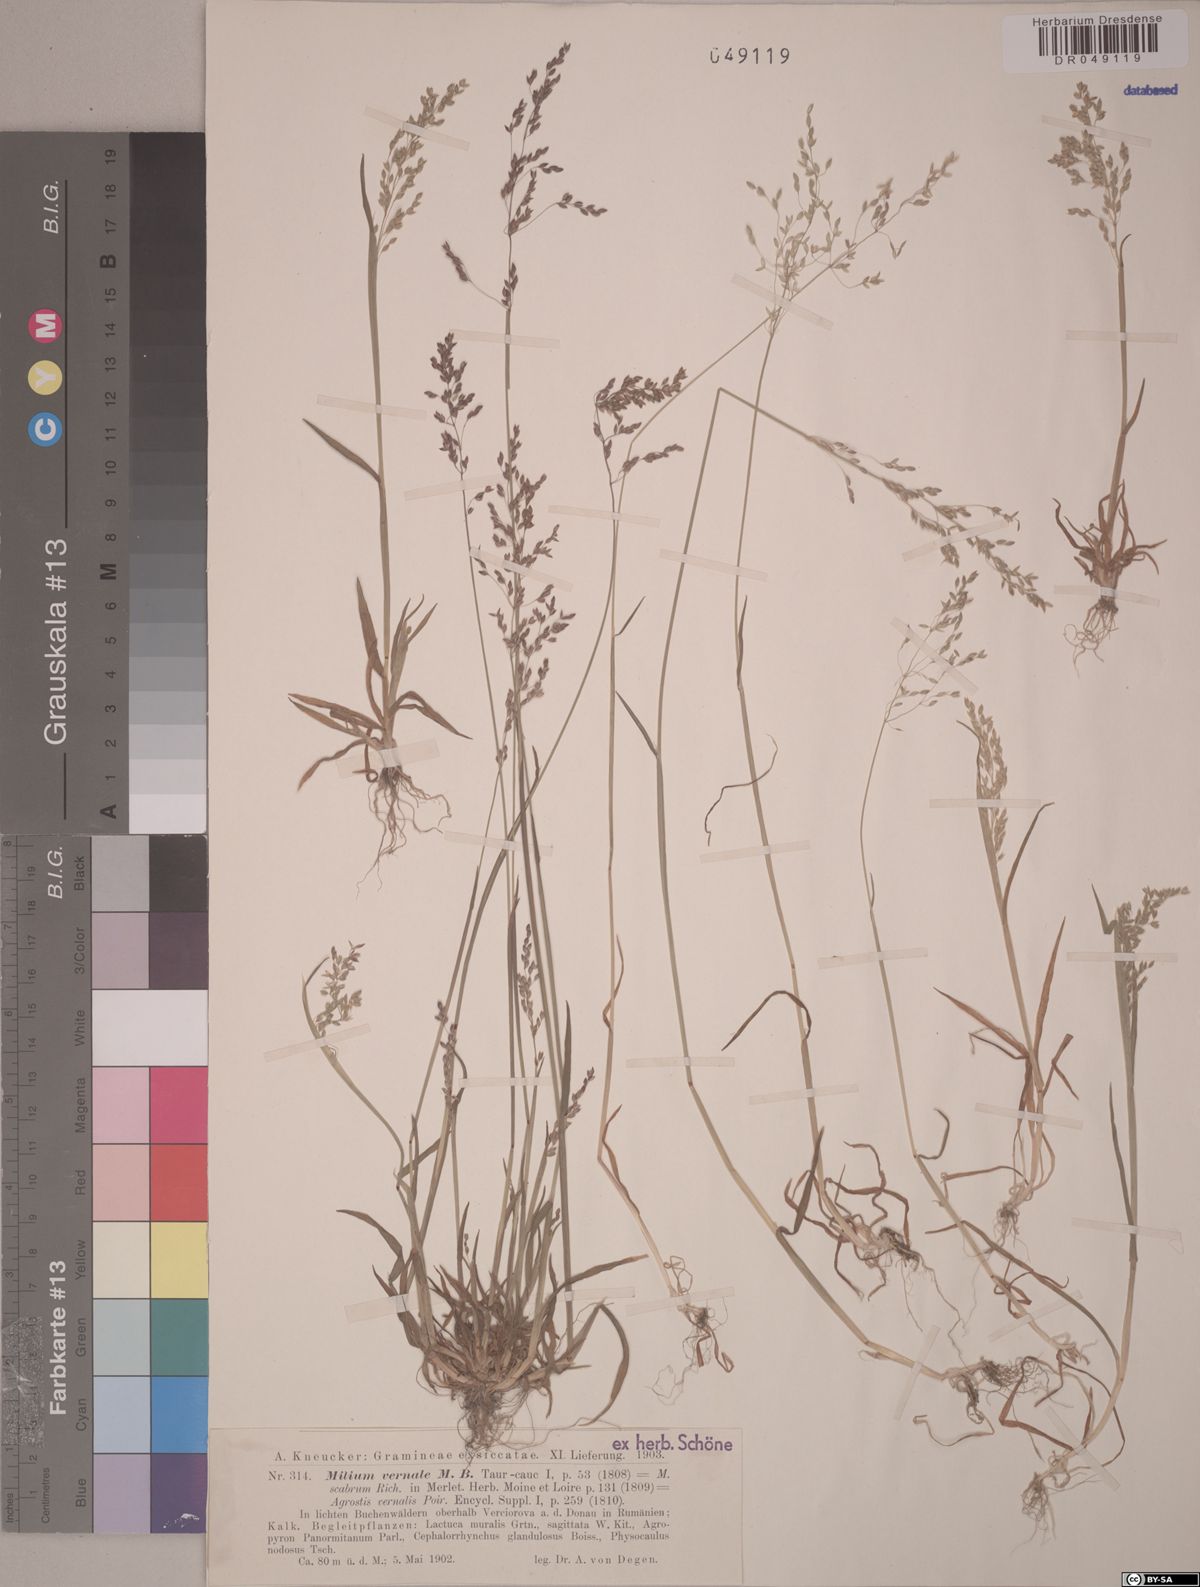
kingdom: Plantae
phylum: Tracheophyta
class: Liliopsida
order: Poales
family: Poaceae
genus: Milium
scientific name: Milium vernale
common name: Early millet
